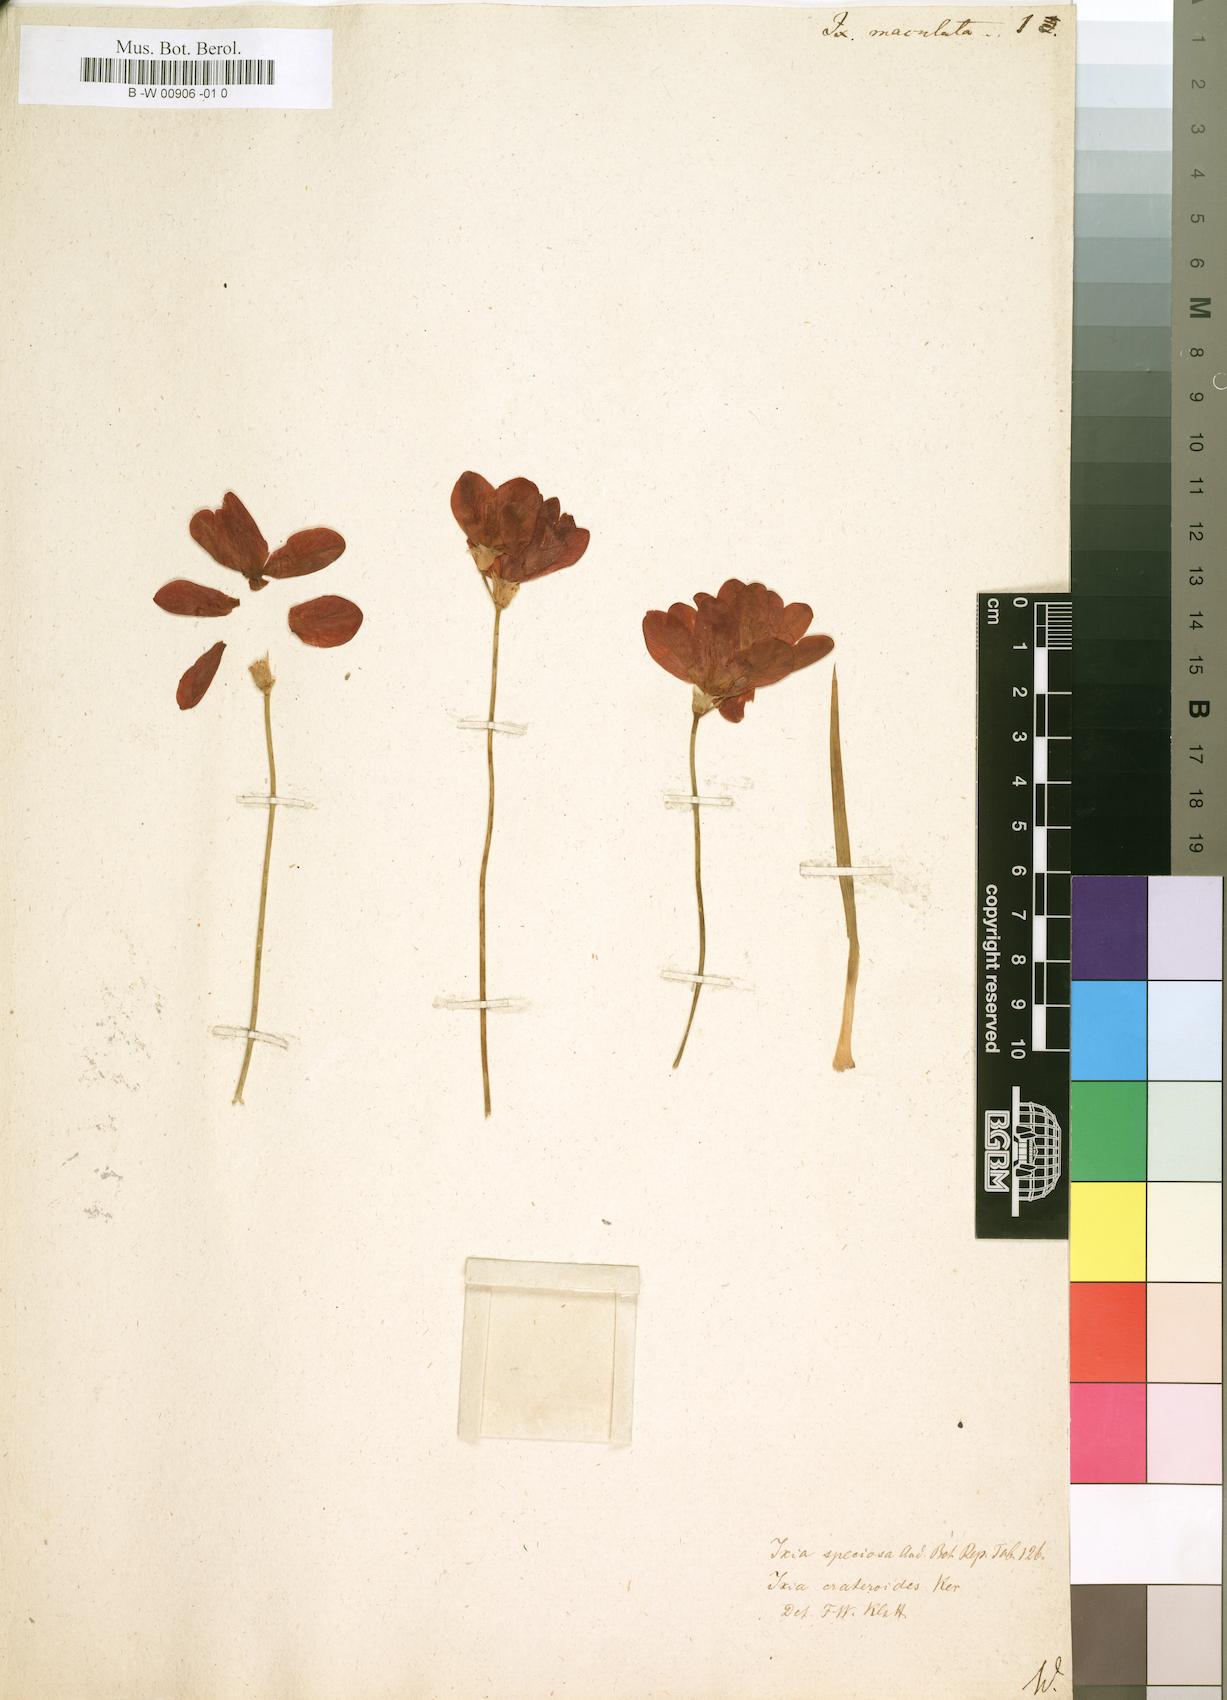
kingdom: Plantae
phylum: Tracheophyta
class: Liliopsida
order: Asparagales
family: Iridaceae
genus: Ixia
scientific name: Ixia maculata
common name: Spotted african cornlily
